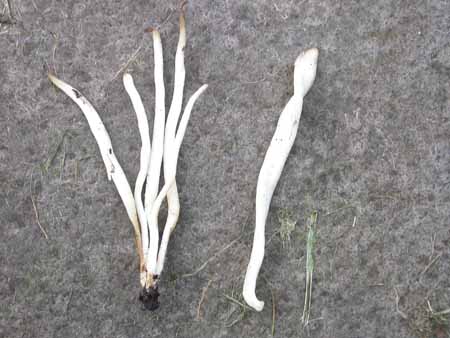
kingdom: Fungi
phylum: Basidiomycota
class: Agaricomycetes
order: Agaricales
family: Clavariaceae
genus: Clavaria
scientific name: Clavaria fragilis
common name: bugtet køllesvamp
